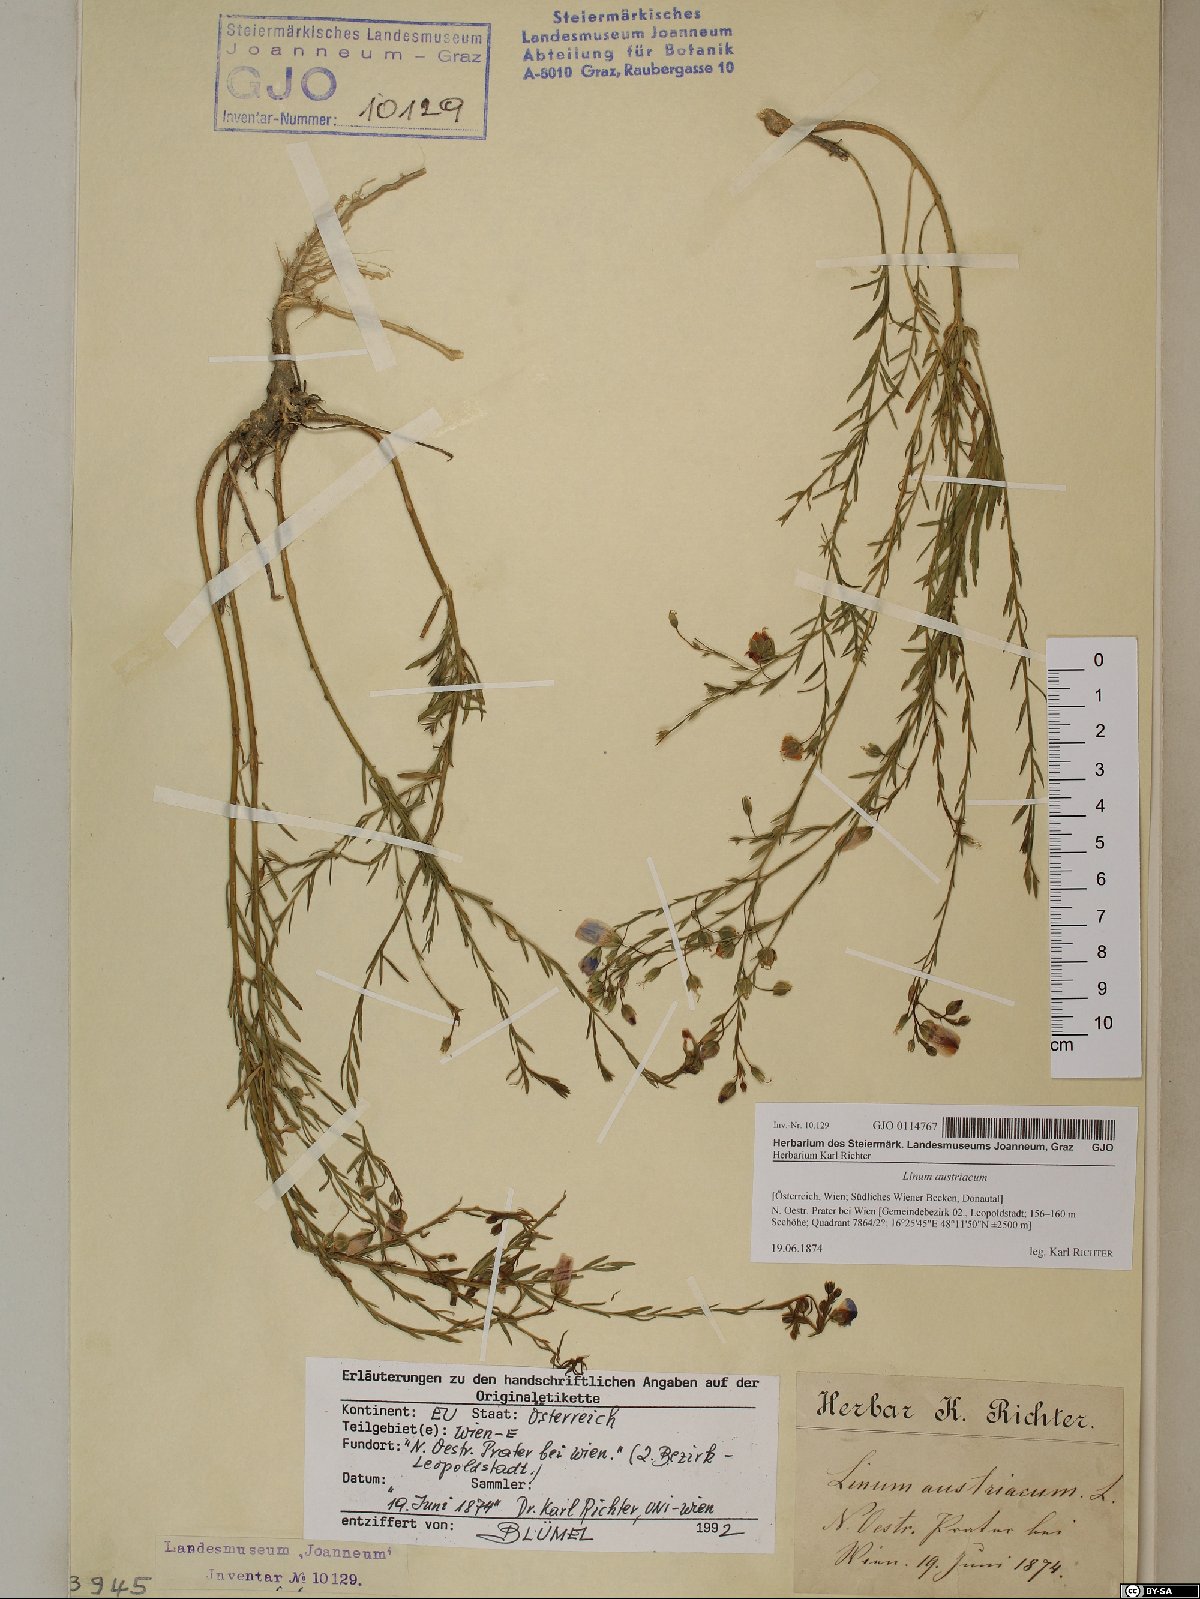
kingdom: Plantae
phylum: Tracheophyta
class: Magnoliopsida
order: Malpighiales
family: Linaceae
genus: Linum
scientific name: Linum austriacum
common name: Austrian flax
